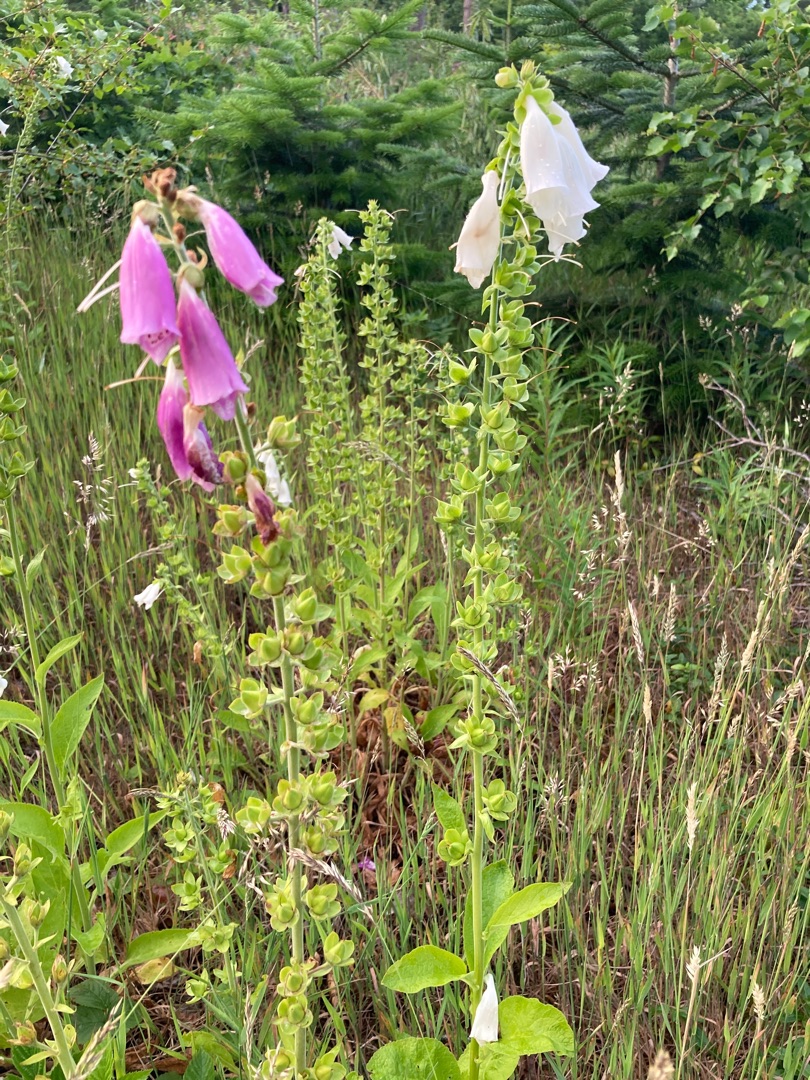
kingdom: Plantae
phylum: Tracheophyta
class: Magnoliopsida
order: Lamiales
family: Plantaginaceae
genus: Digitalis
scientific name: Digitalis purpurea
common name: Almindelig fingerbøl
